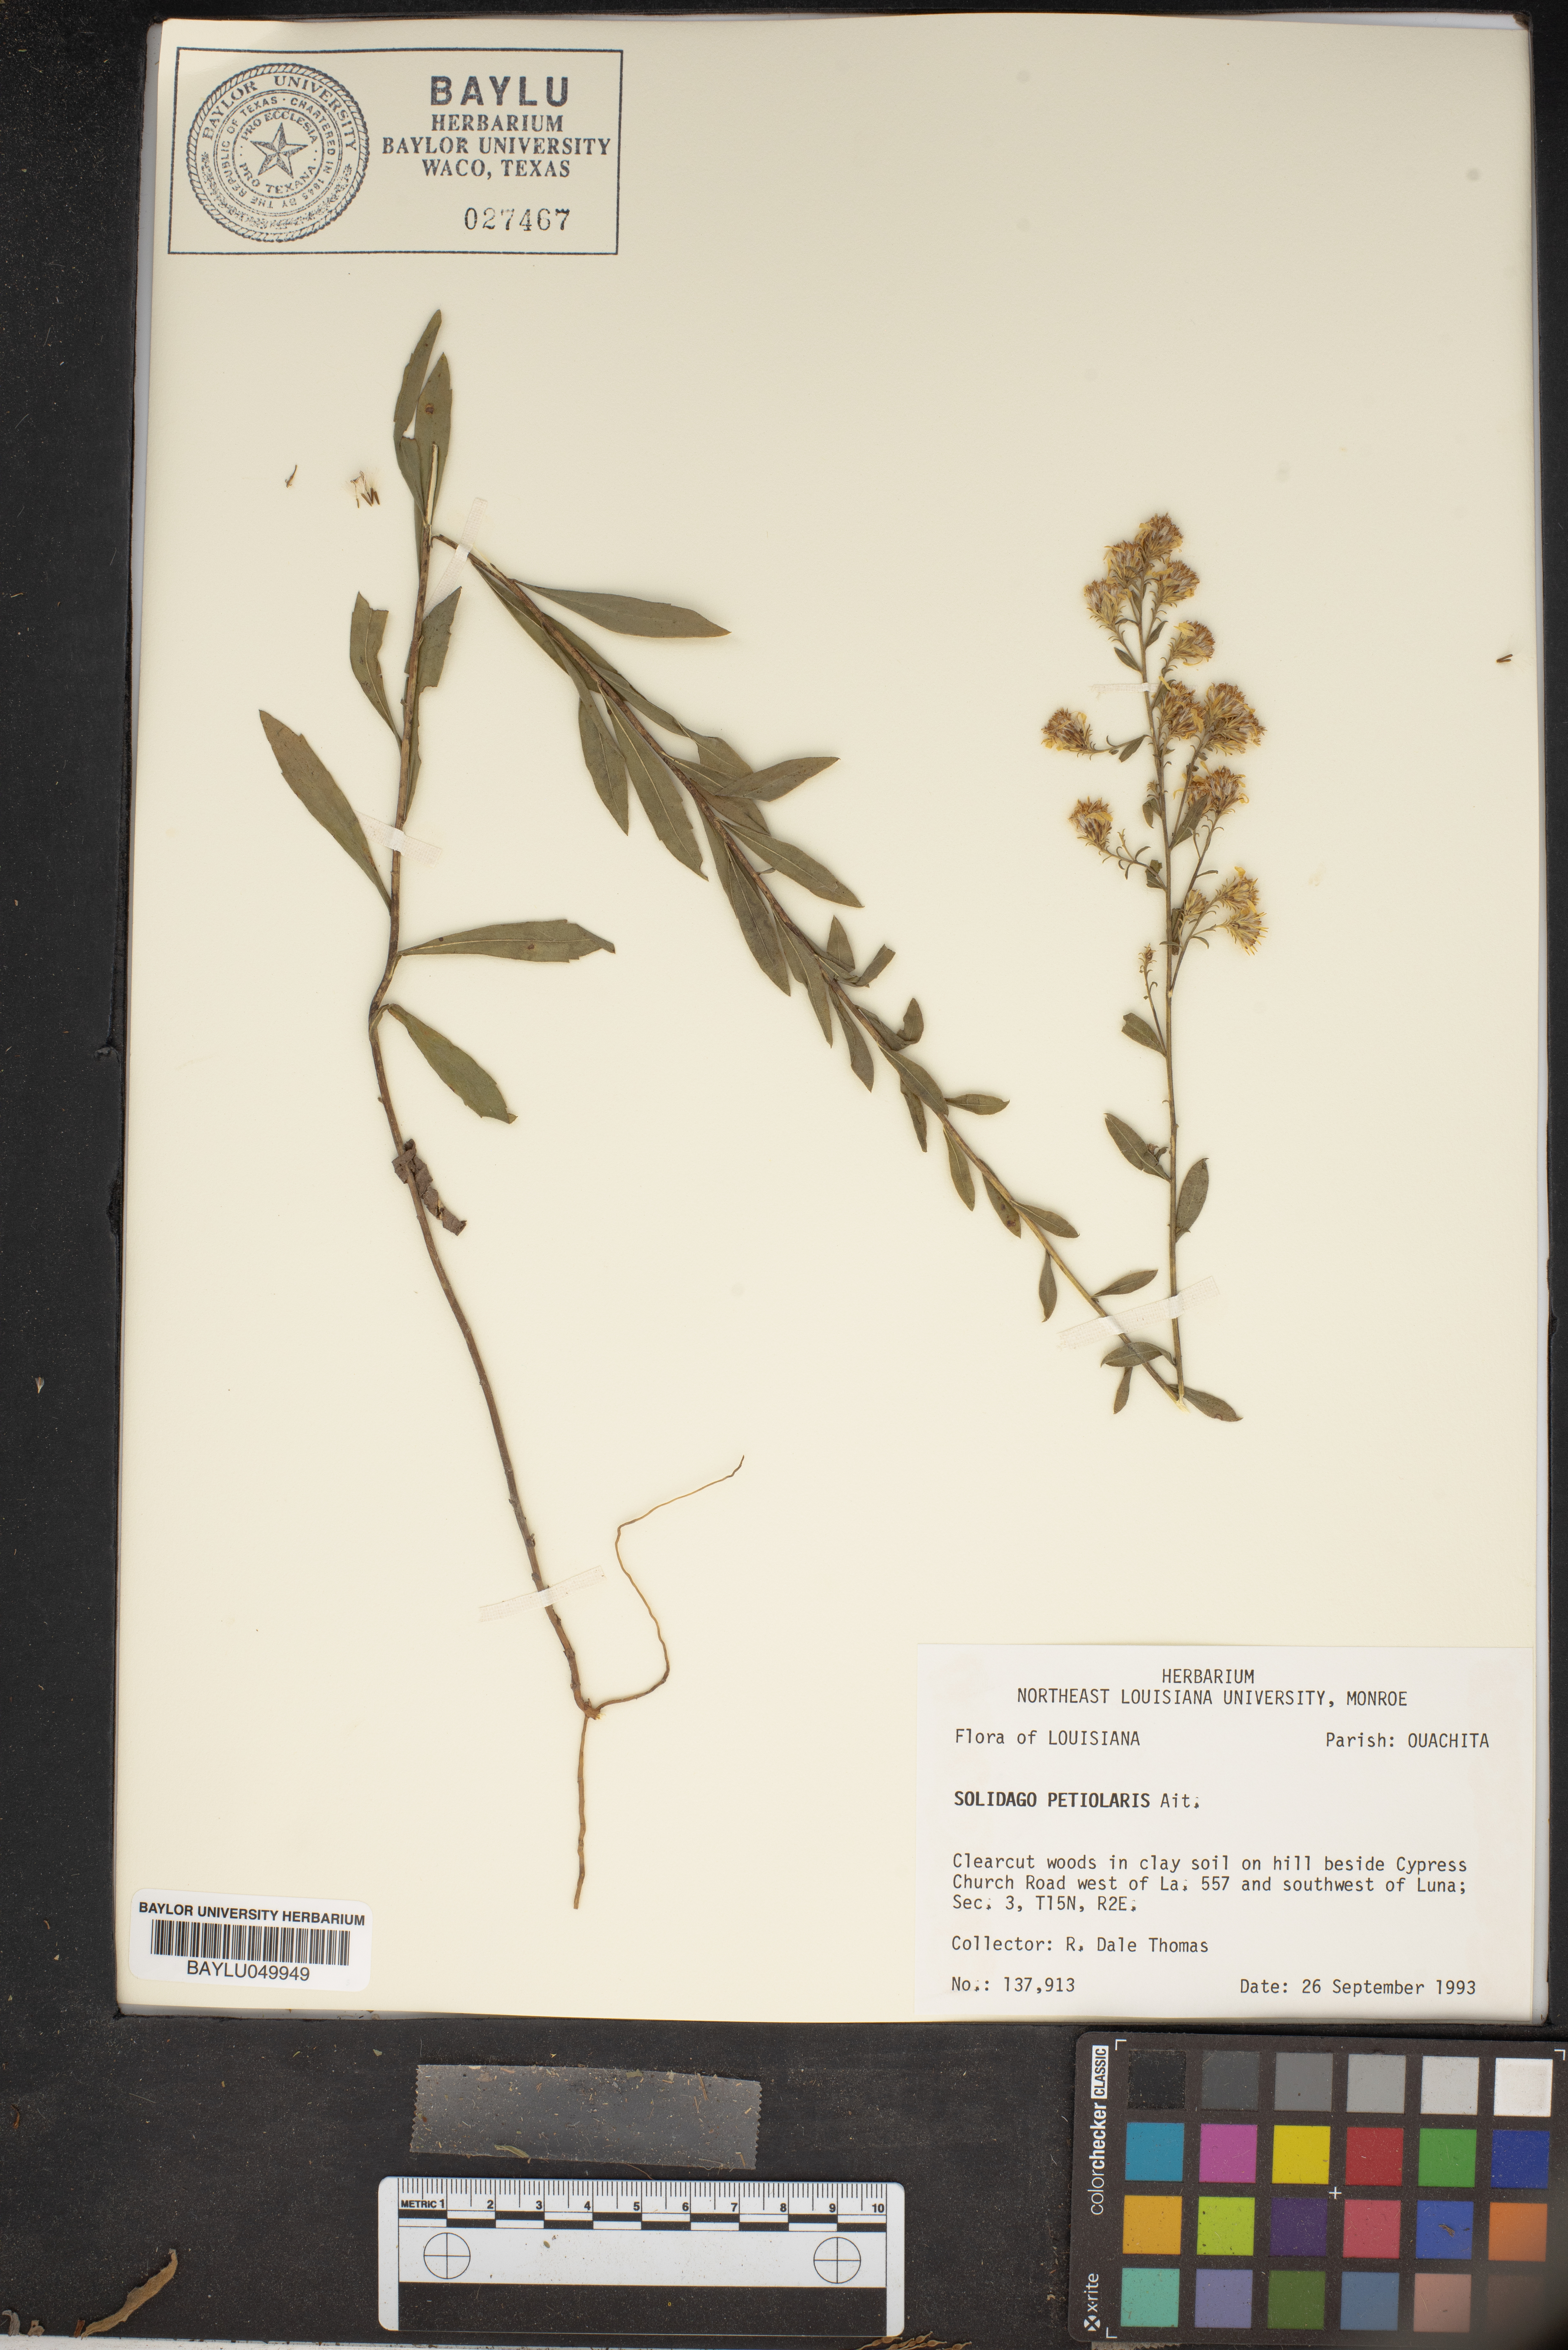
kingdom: Plantae
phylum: Tracheophyta
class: Magnoliopsida
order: Asterales
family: Asteraceae
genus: Solidago
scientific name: Solidago petiolaris
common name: Downy ragged goldenrod
